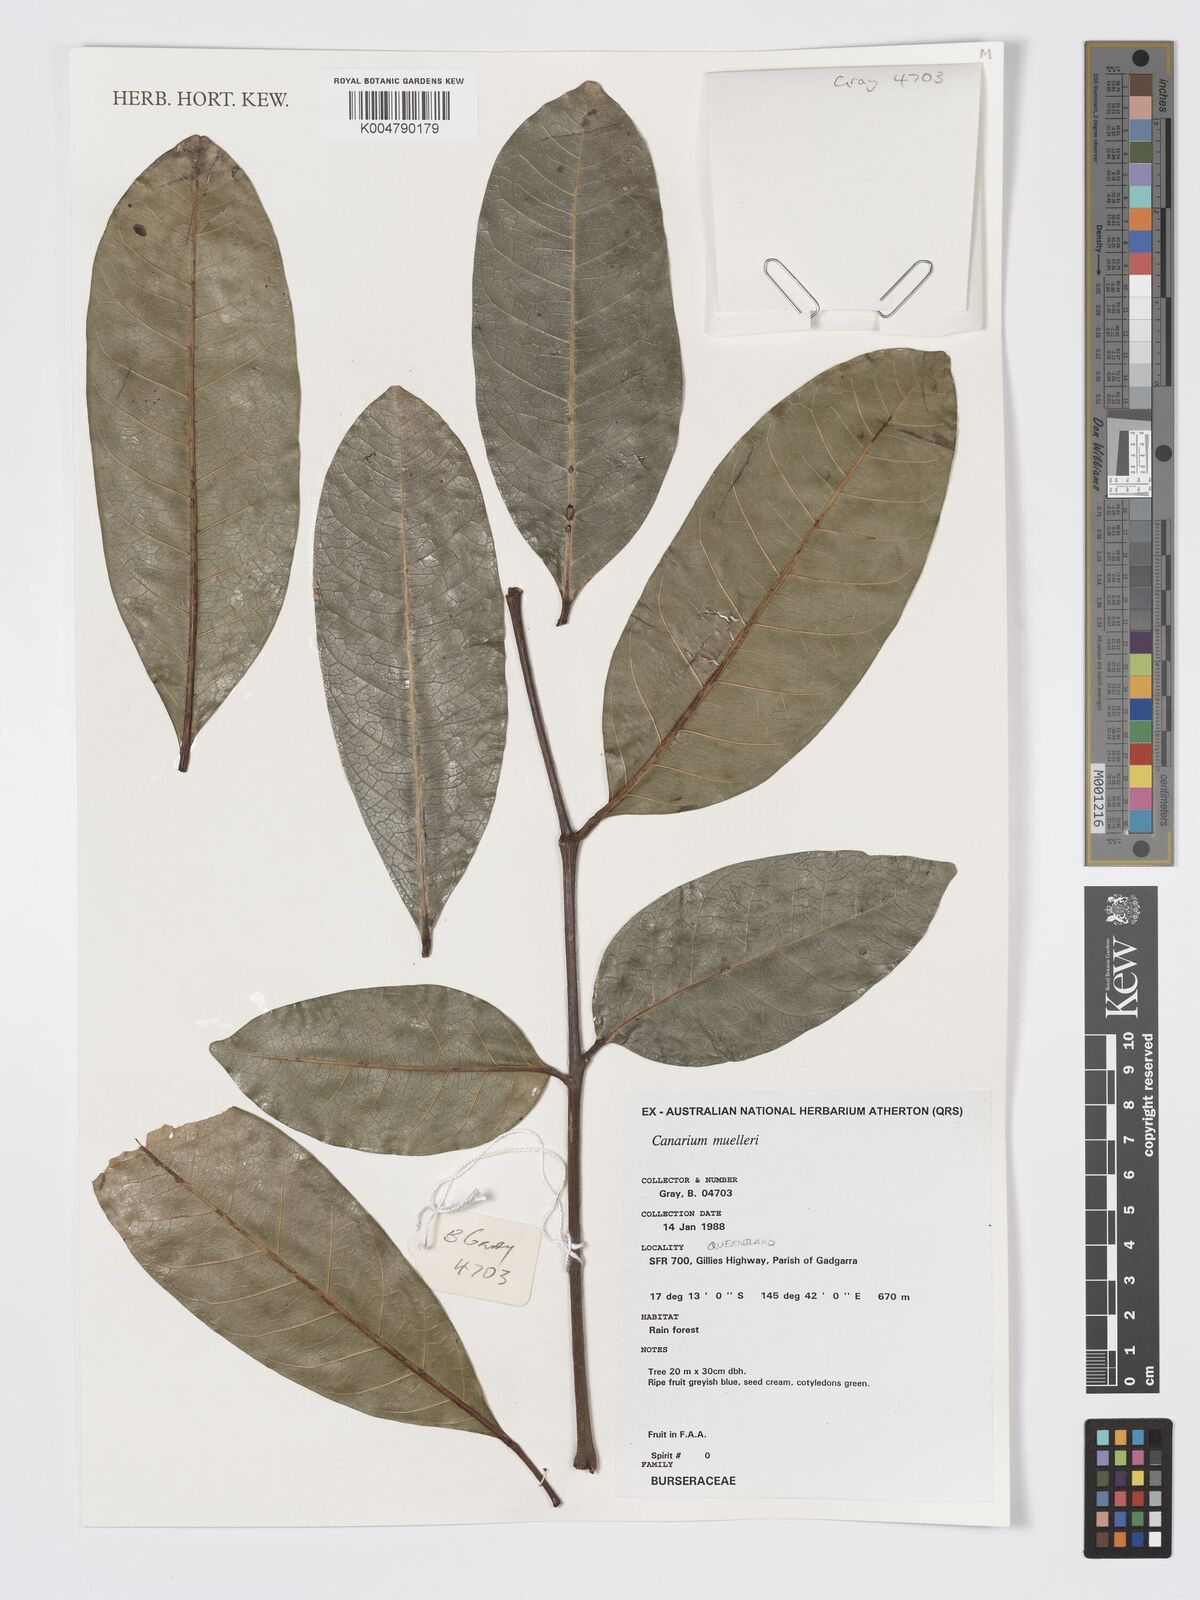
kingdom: Plantae
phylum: Tracheophyta
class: Magnoliopsida
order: Sapindales
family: Burseraceae
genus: Canarium
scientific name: Canarium muelleri
